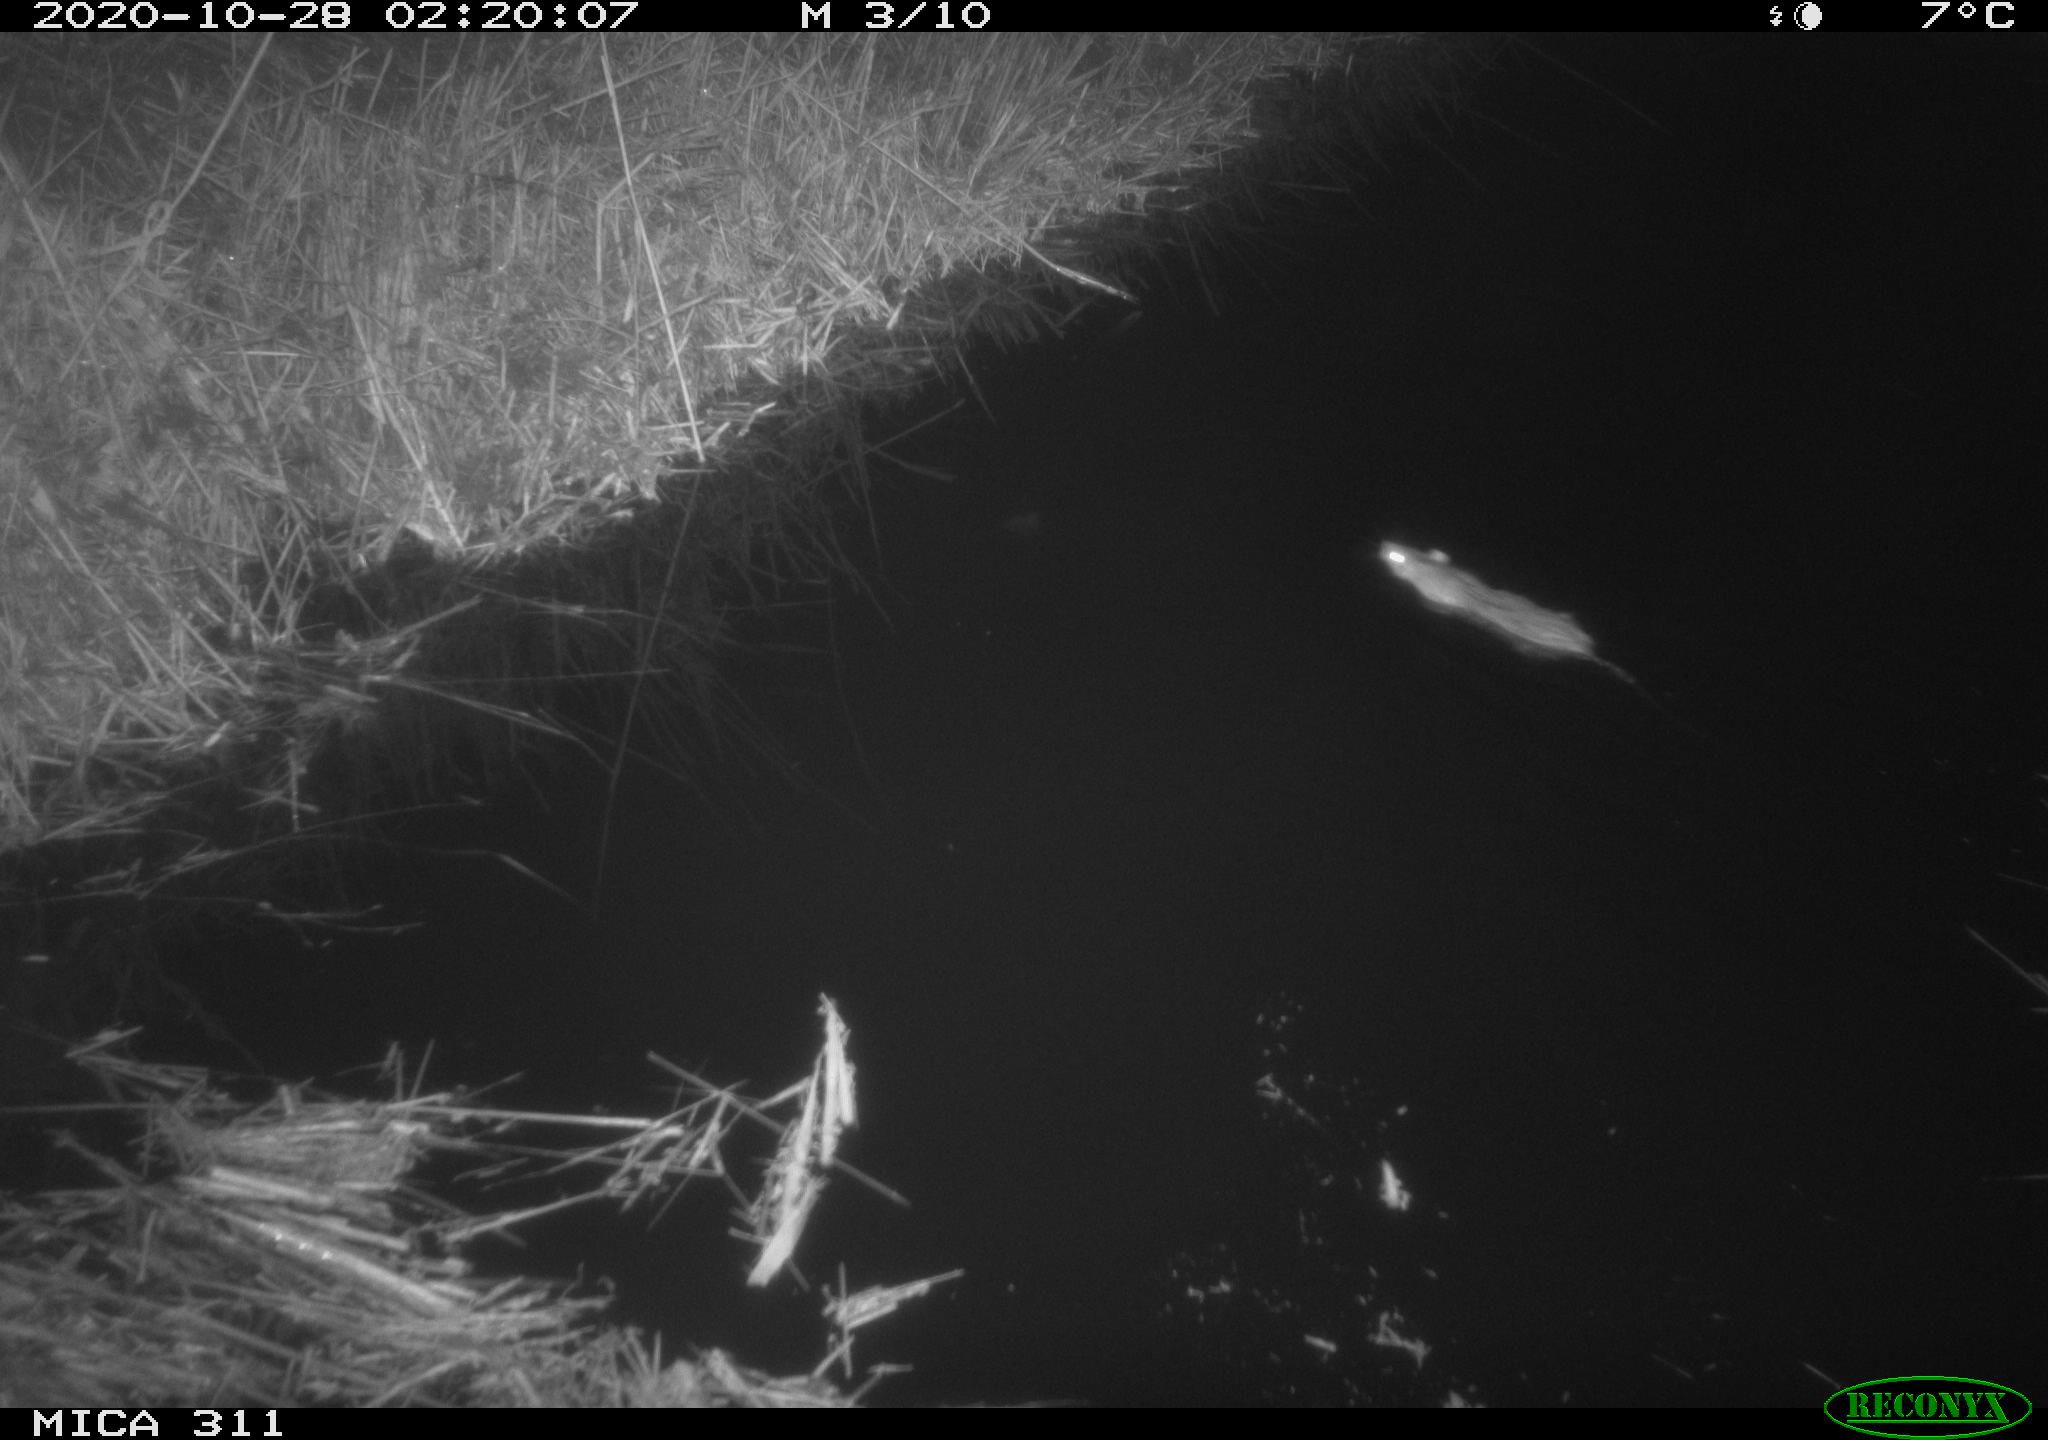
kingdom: Animalia
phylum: Chordata
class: Mammalia
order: Rodentia
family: Muridae
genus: Rattus
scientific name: Rattus norvegicus
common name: Brown rat
